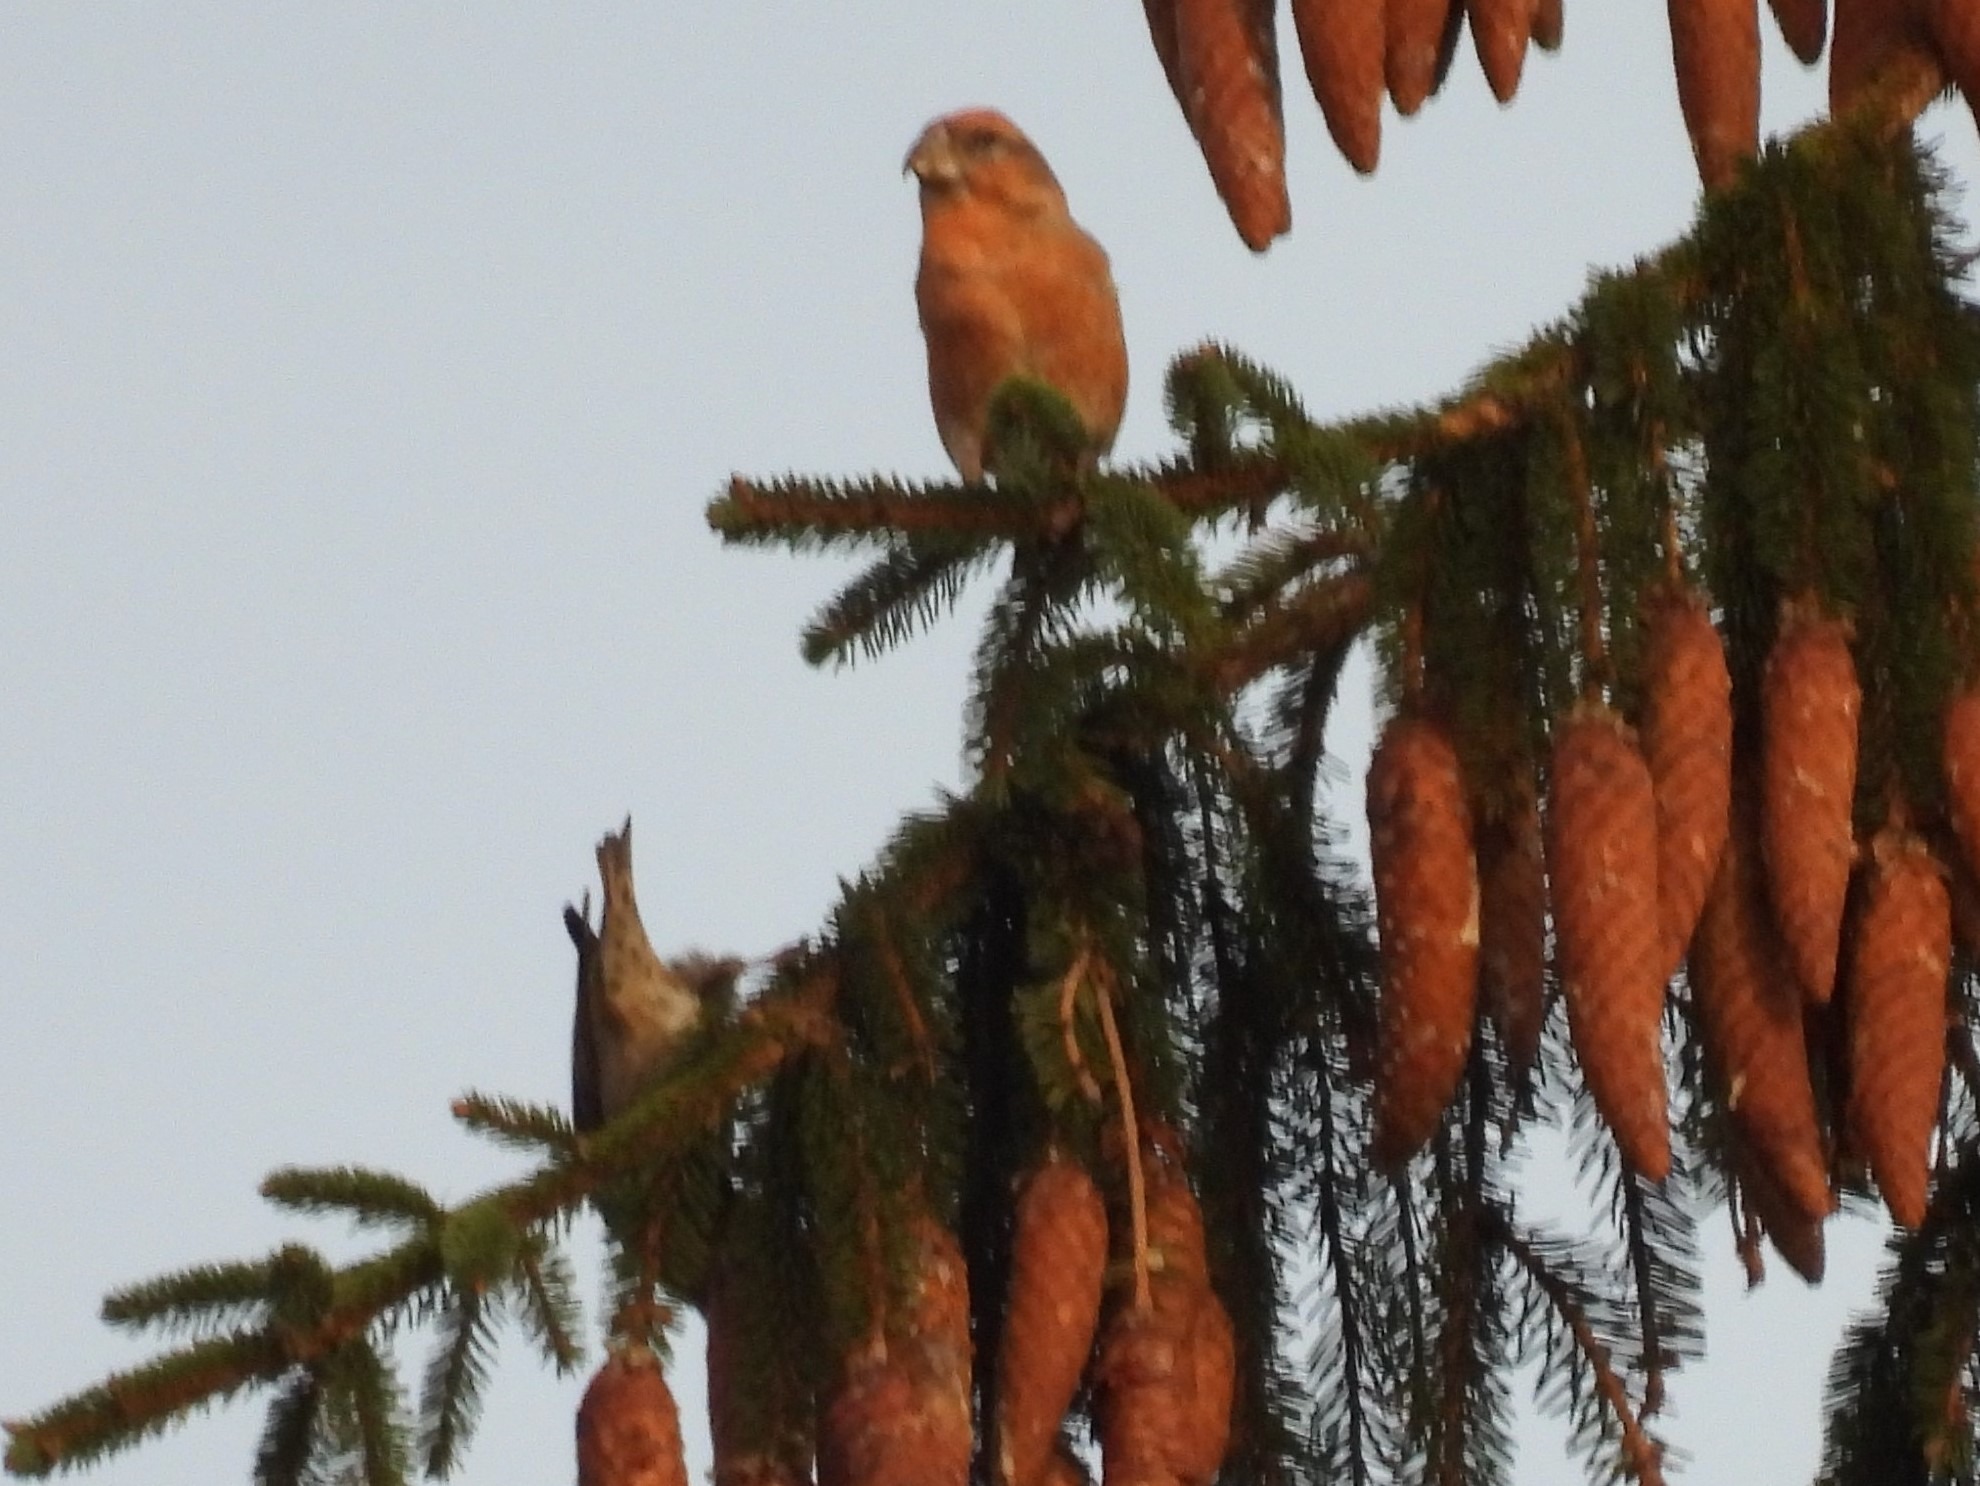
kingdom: Animalia
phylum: Chordata
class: Aves
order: Passeriformes
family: Fringillidae
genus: Loxia
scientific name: Loxia pytyopsittacus
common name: Stor korsnæb
